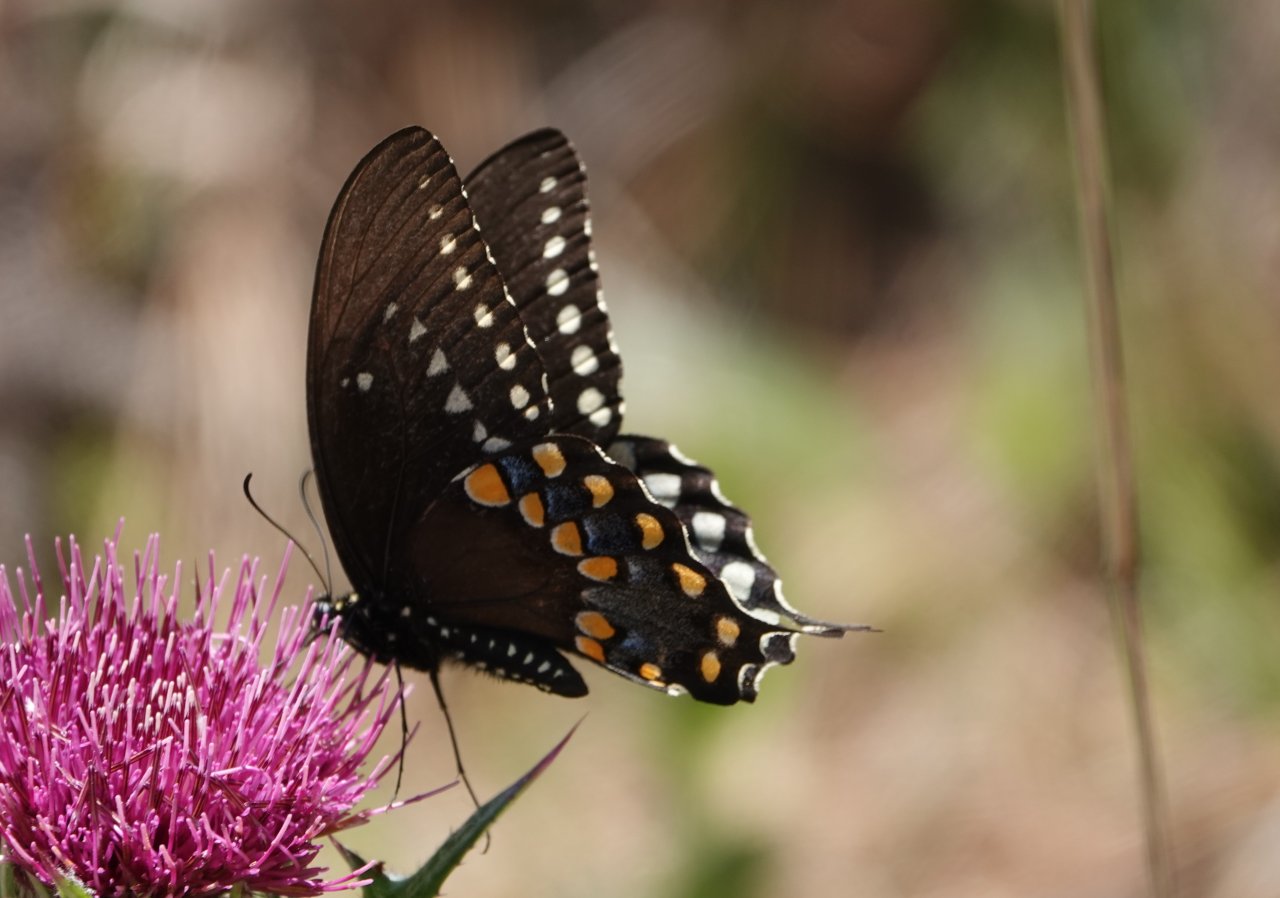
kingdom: Animalia
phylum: Arthropoda
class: Insecta
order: Lepidoptera
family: Papilionidae
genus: Pterourus
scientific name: Pterourus troilus
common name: Spicebush Swallowtail
